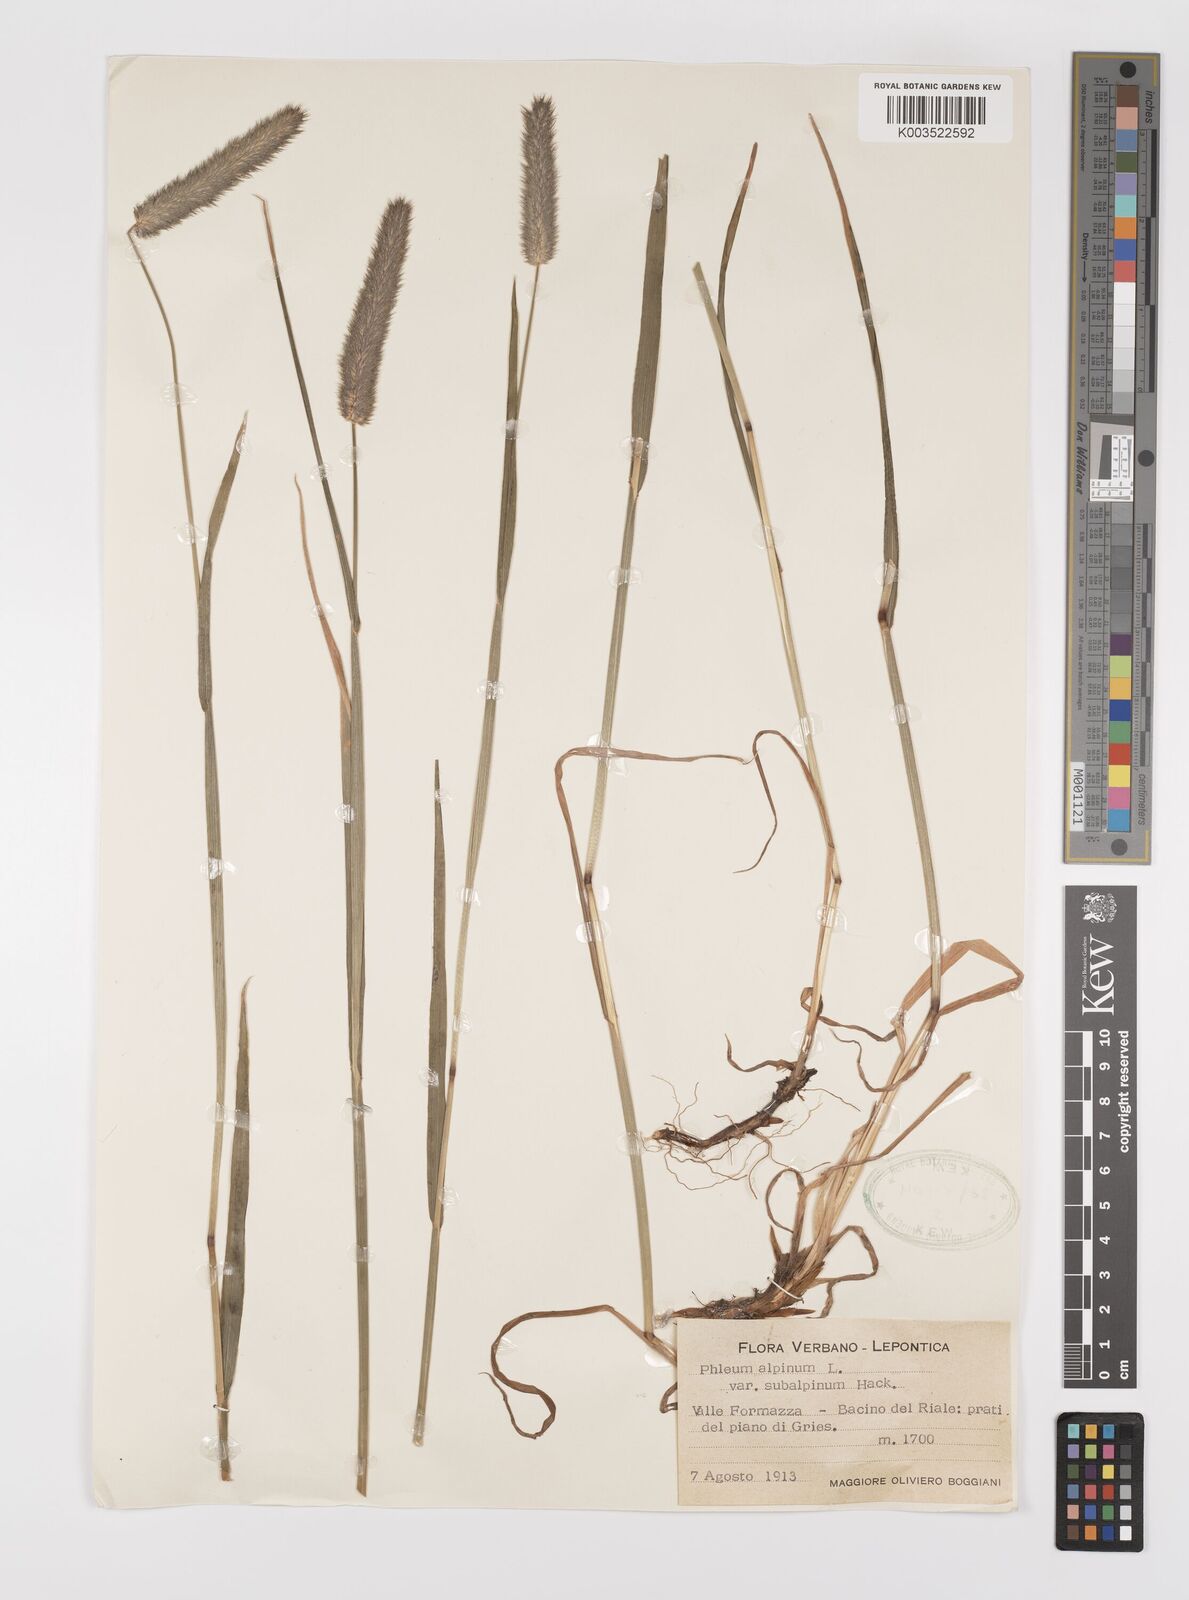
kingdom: Plantae
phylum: Tracheophyta
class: Liliopsida
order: Poales
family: Poaceae
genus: Phleum
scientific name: Phleum alpinum
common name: Alpine cat's-tail
